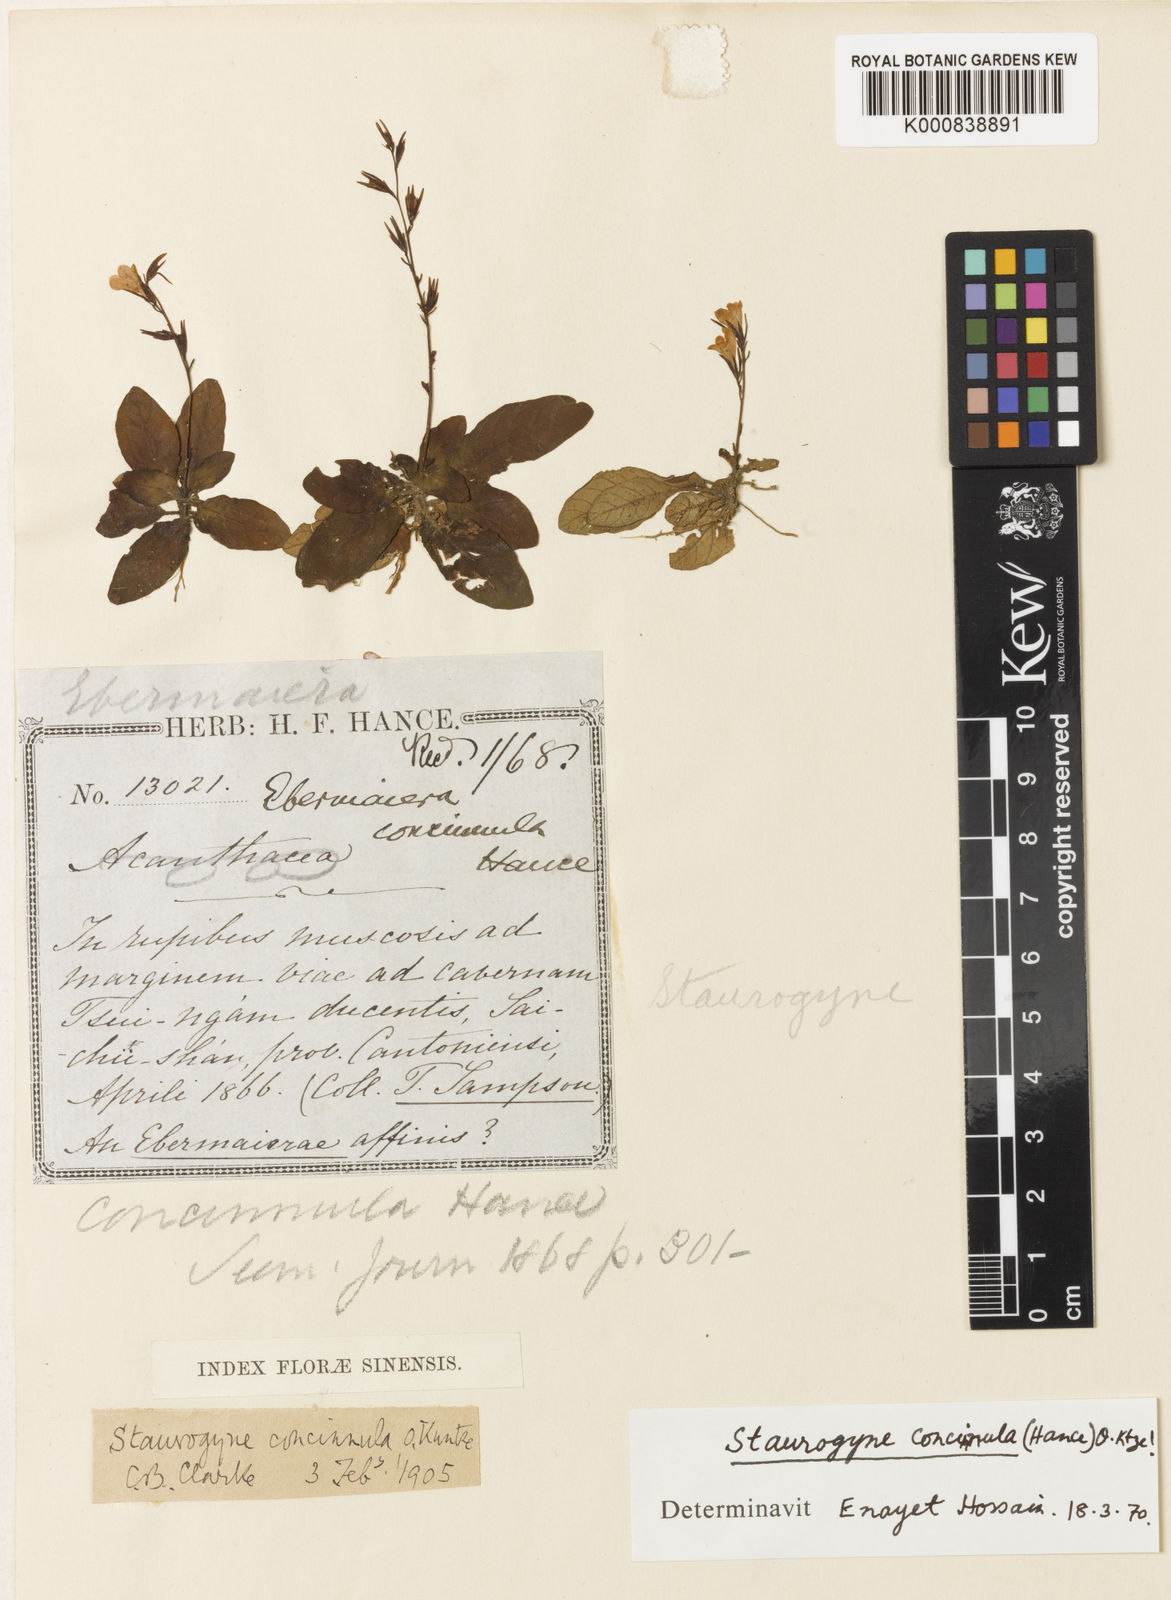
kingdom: Plantae
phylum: Tracheophyta
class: Magnoliopsida
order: Lamiales
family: Acanthaceae
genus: Staurogyne
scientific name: Staurogyne concinnula
